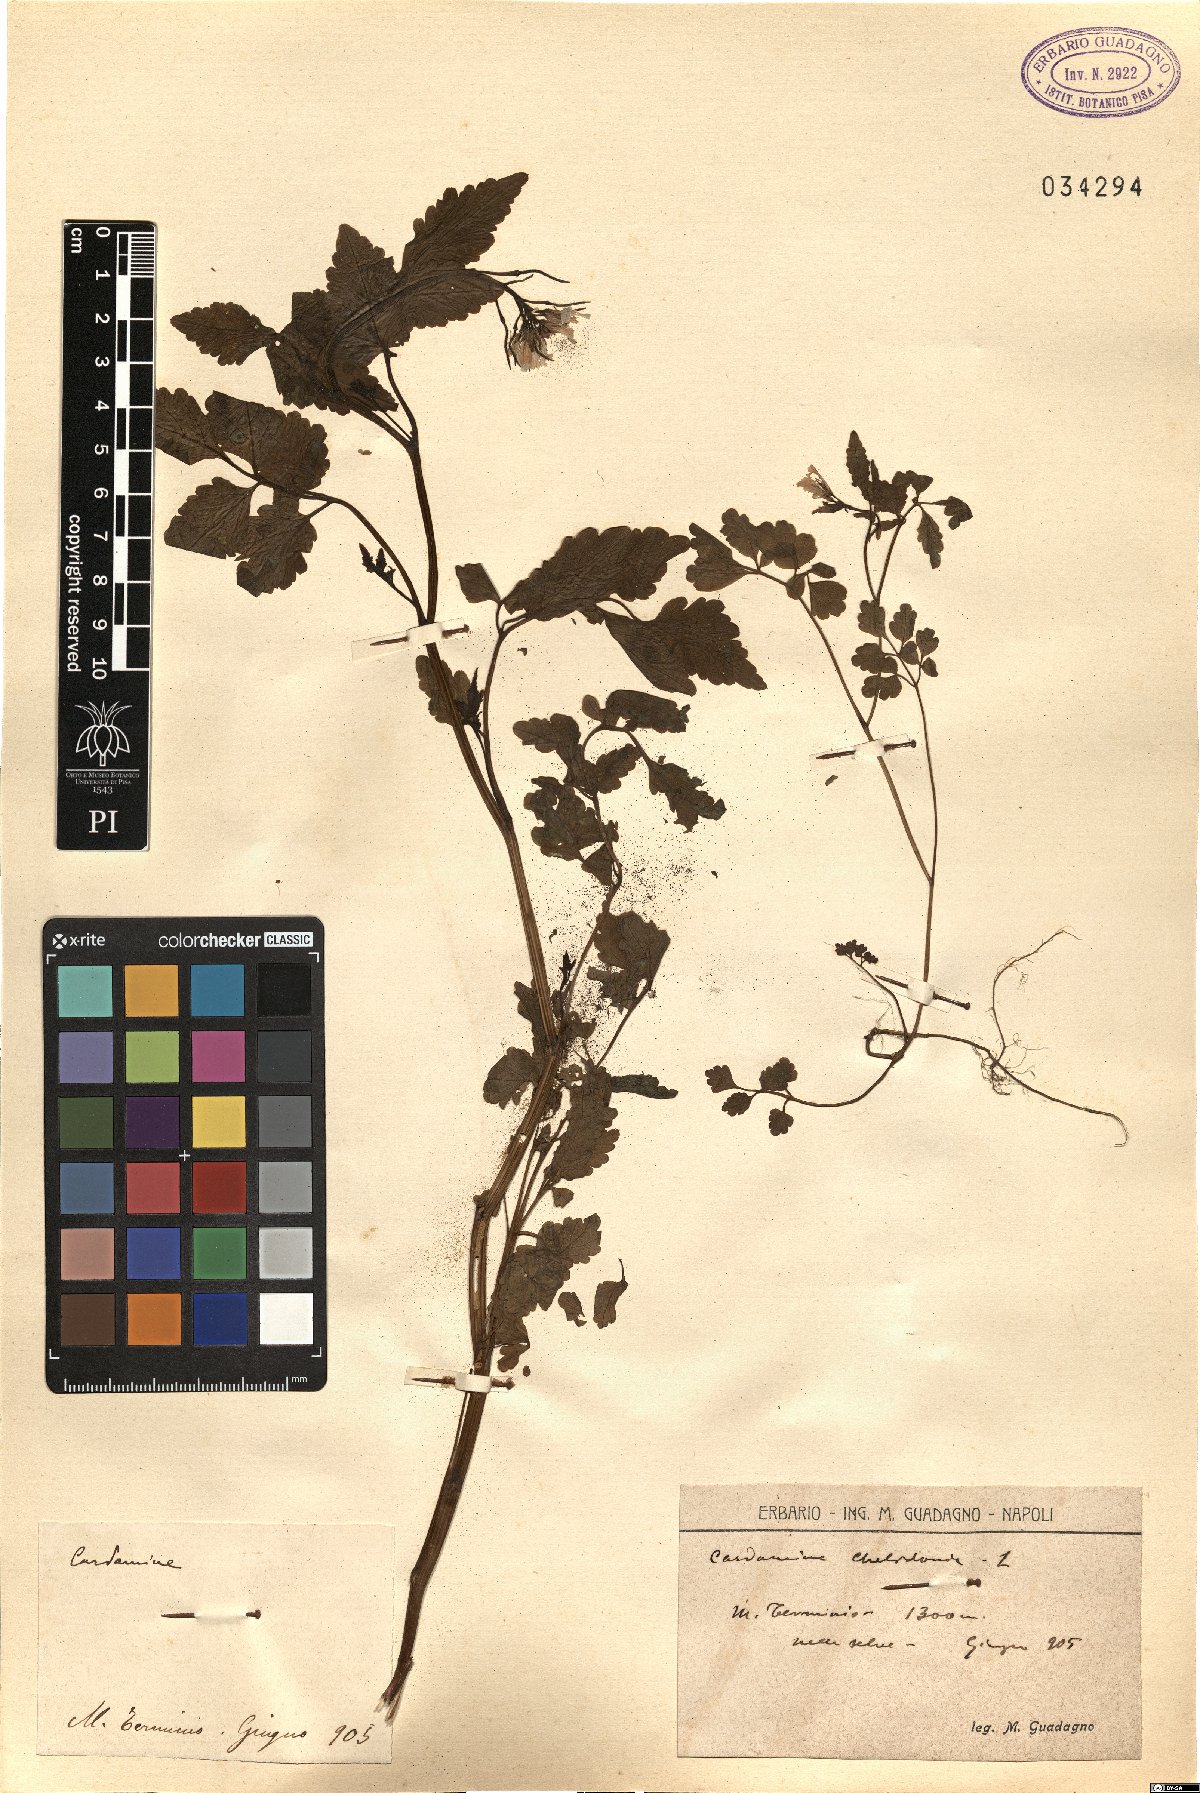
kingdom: Plantae
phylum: Tracheophyta
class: Magnoliopsida
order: Brassicales
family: Brassicaceae
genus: Cardamine
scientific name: Cardamine chelidonia
